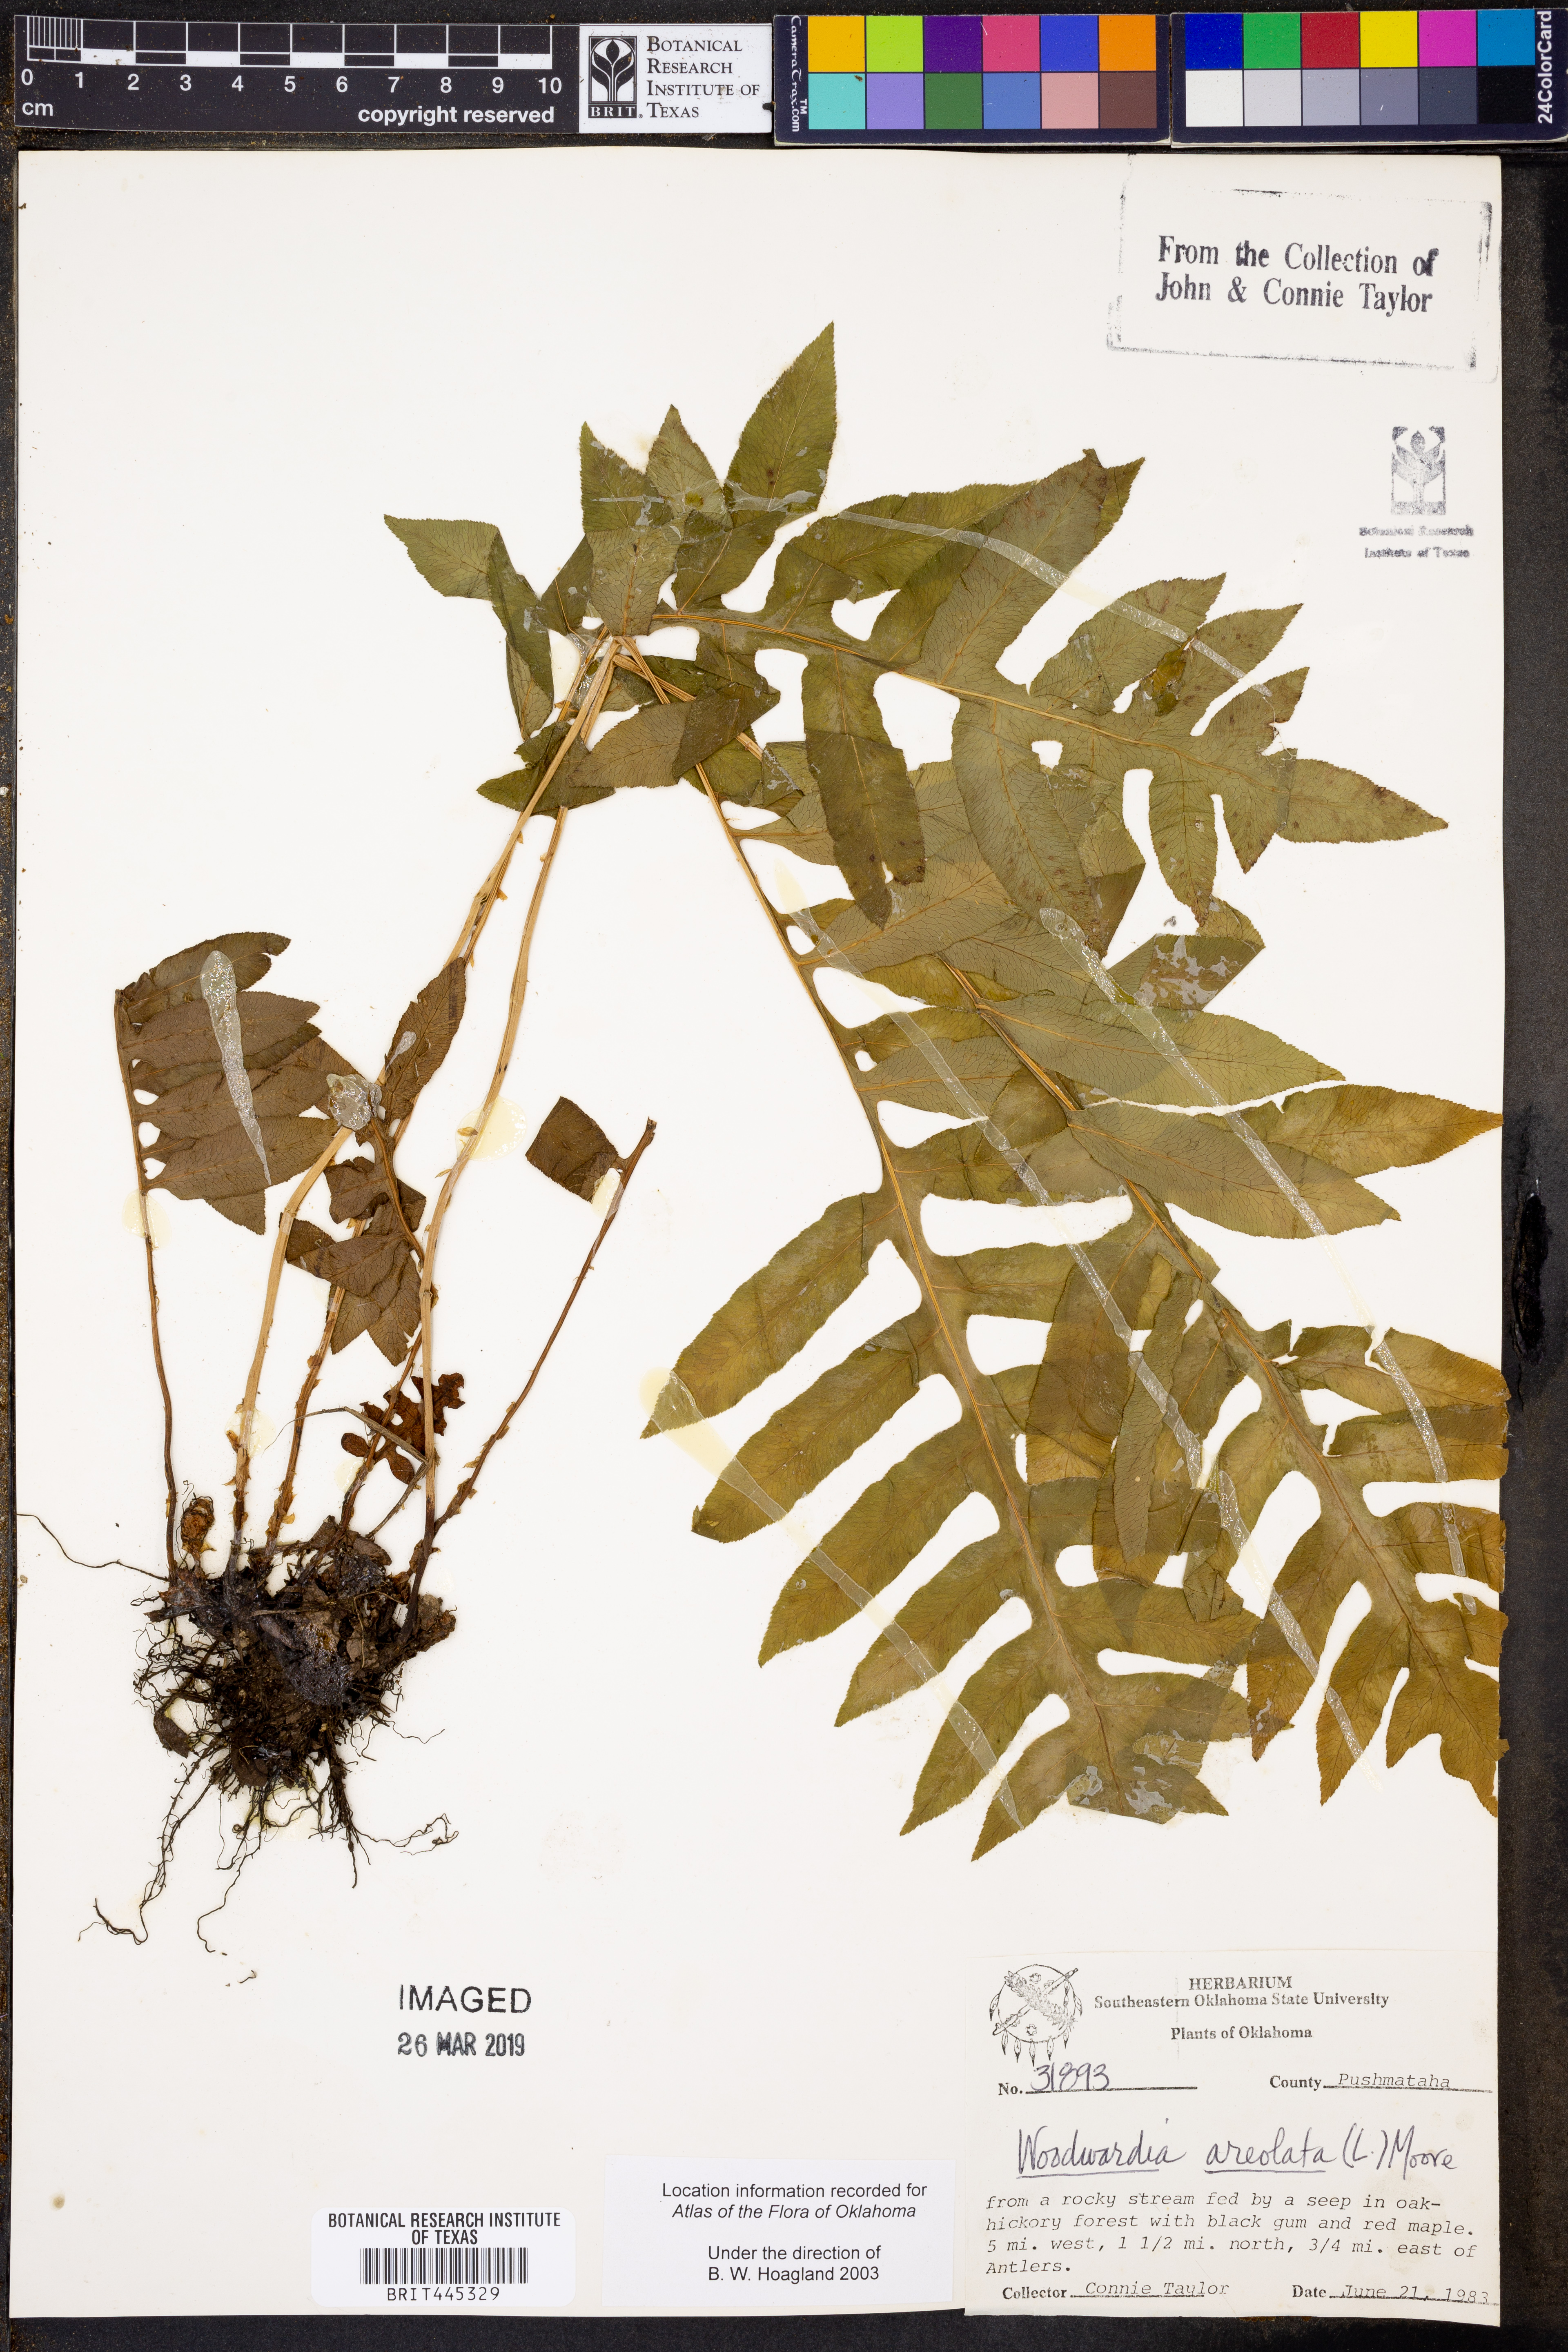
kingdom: Plantae
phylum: Tracheophyta
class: Polypodiopsida
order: Polypodiales
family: Blechnaceae
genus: Lorinseria
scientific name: Lorinseria areolata
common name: Dwarf chain fern
